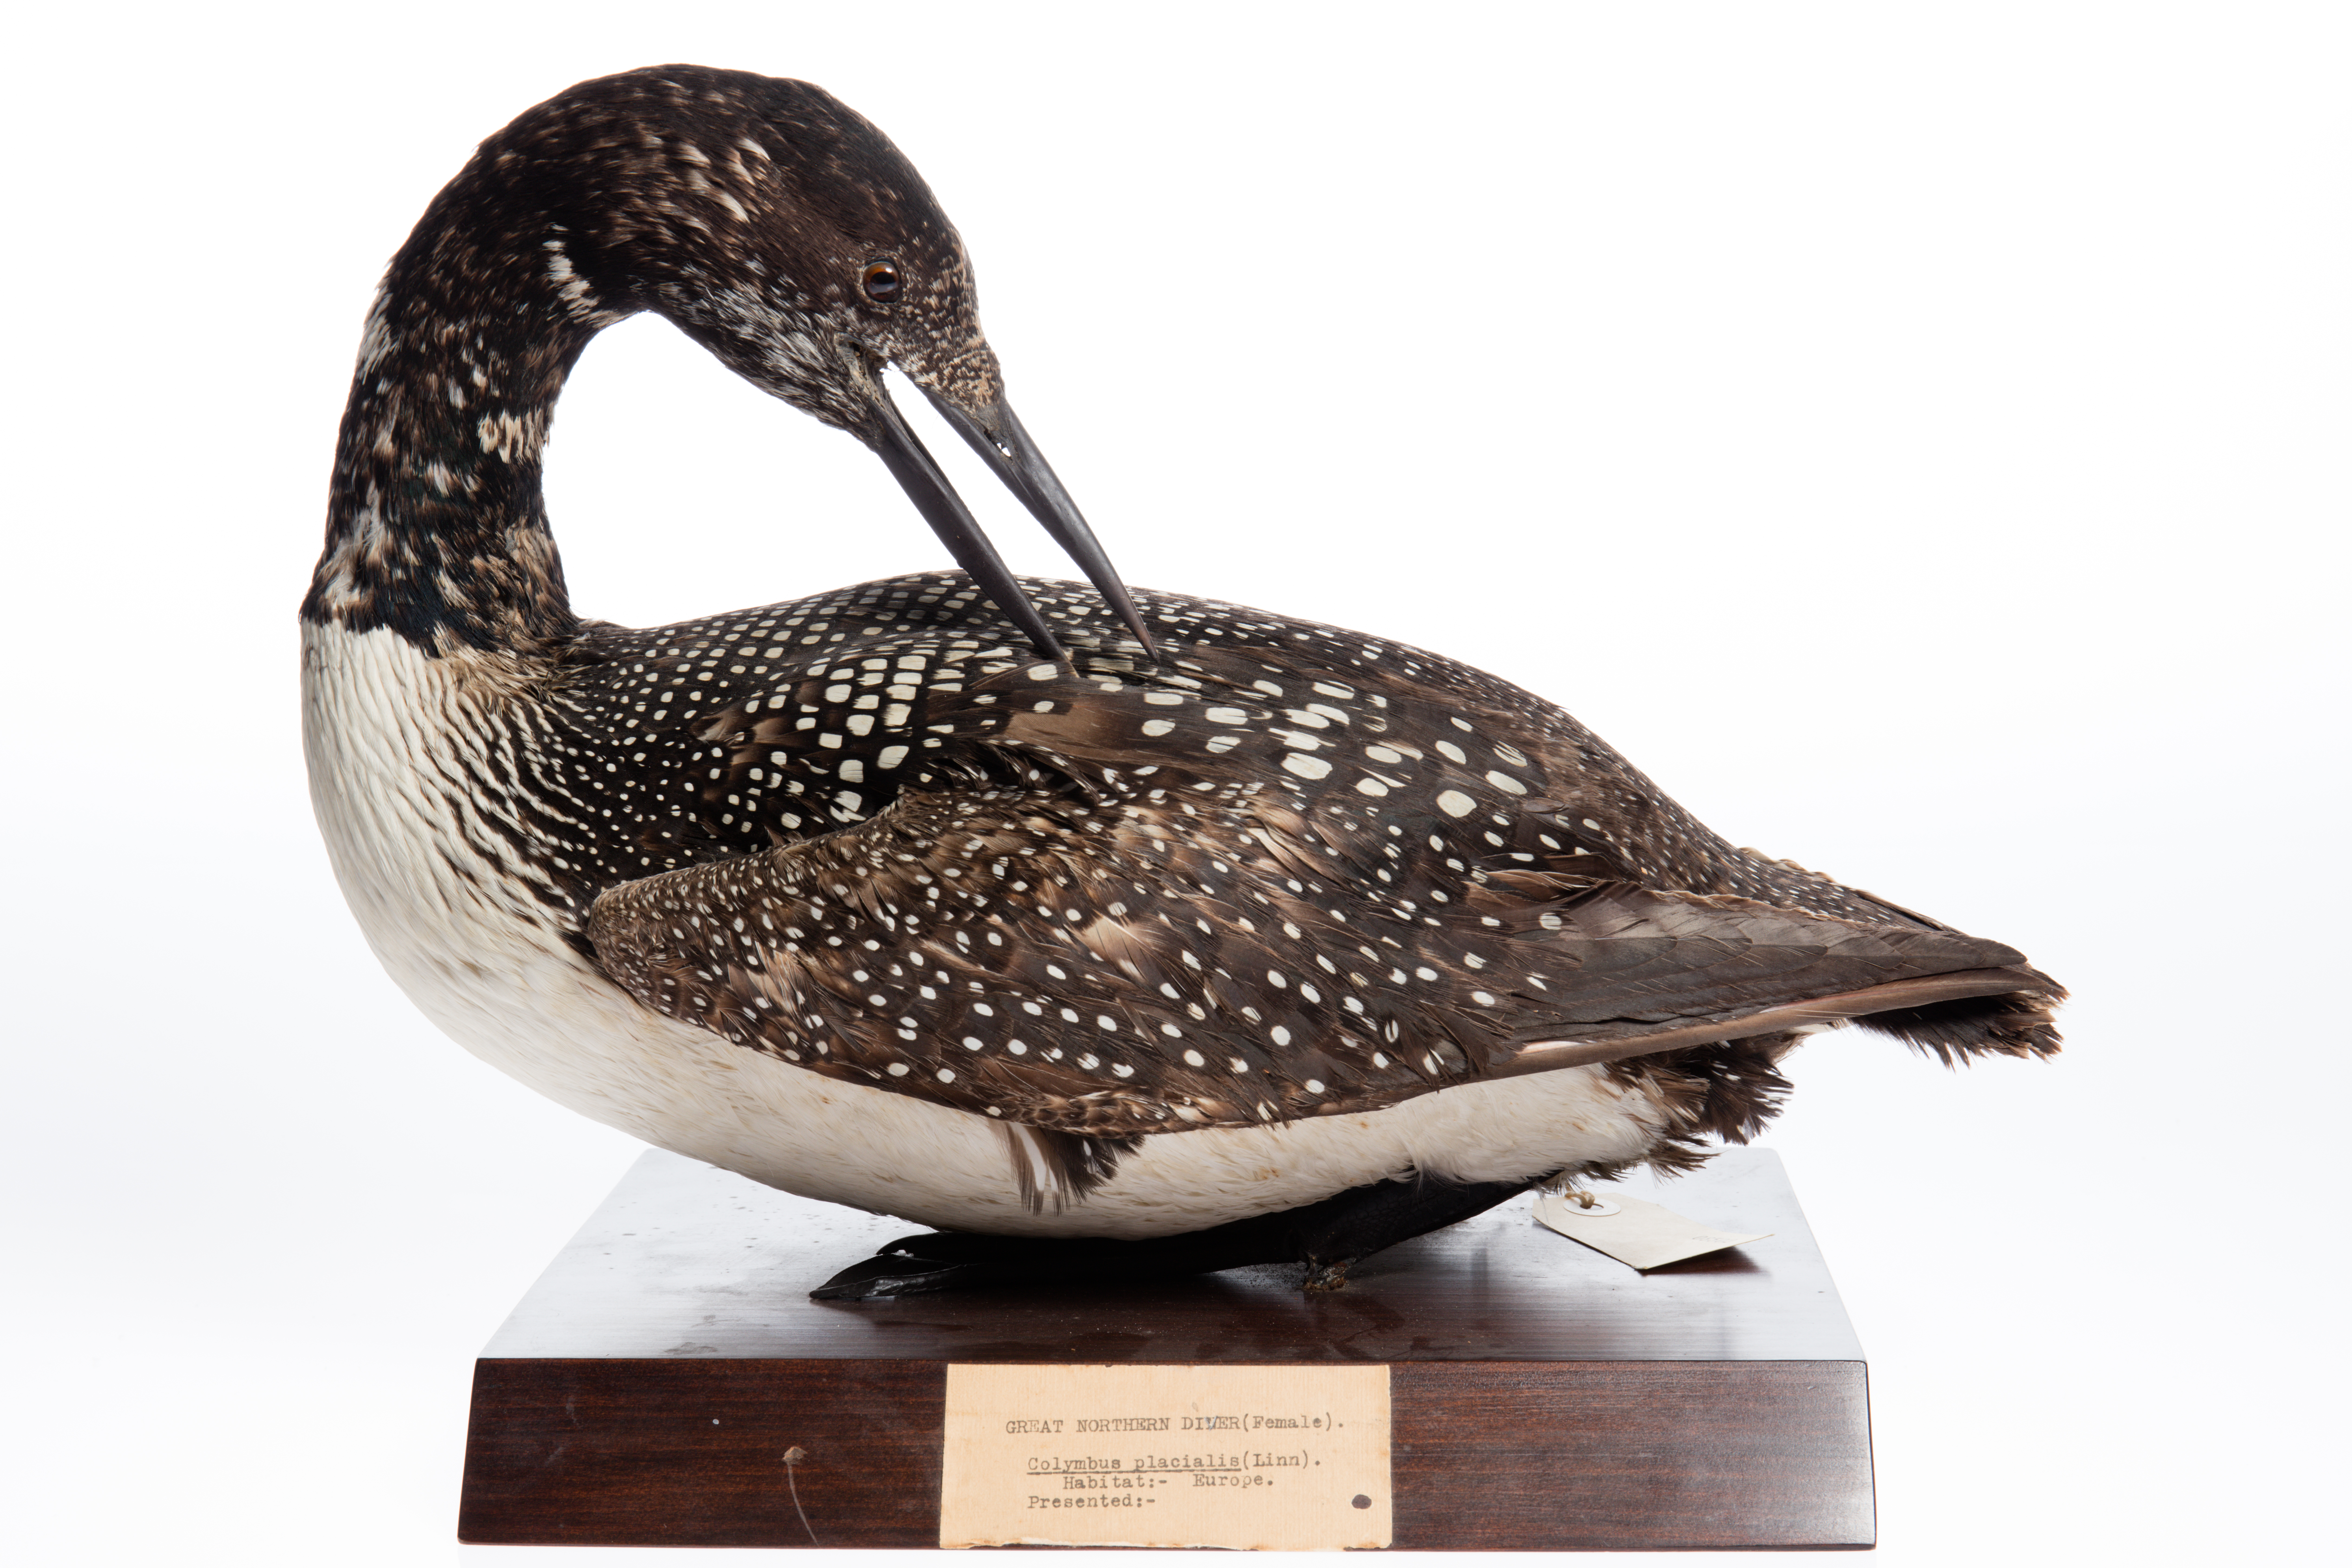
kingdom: Animalia
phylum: Chordata
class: Aves
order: Gaviiformes
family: Gaviidae
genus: Gavia
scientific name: Gavia immer
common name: Common loon
